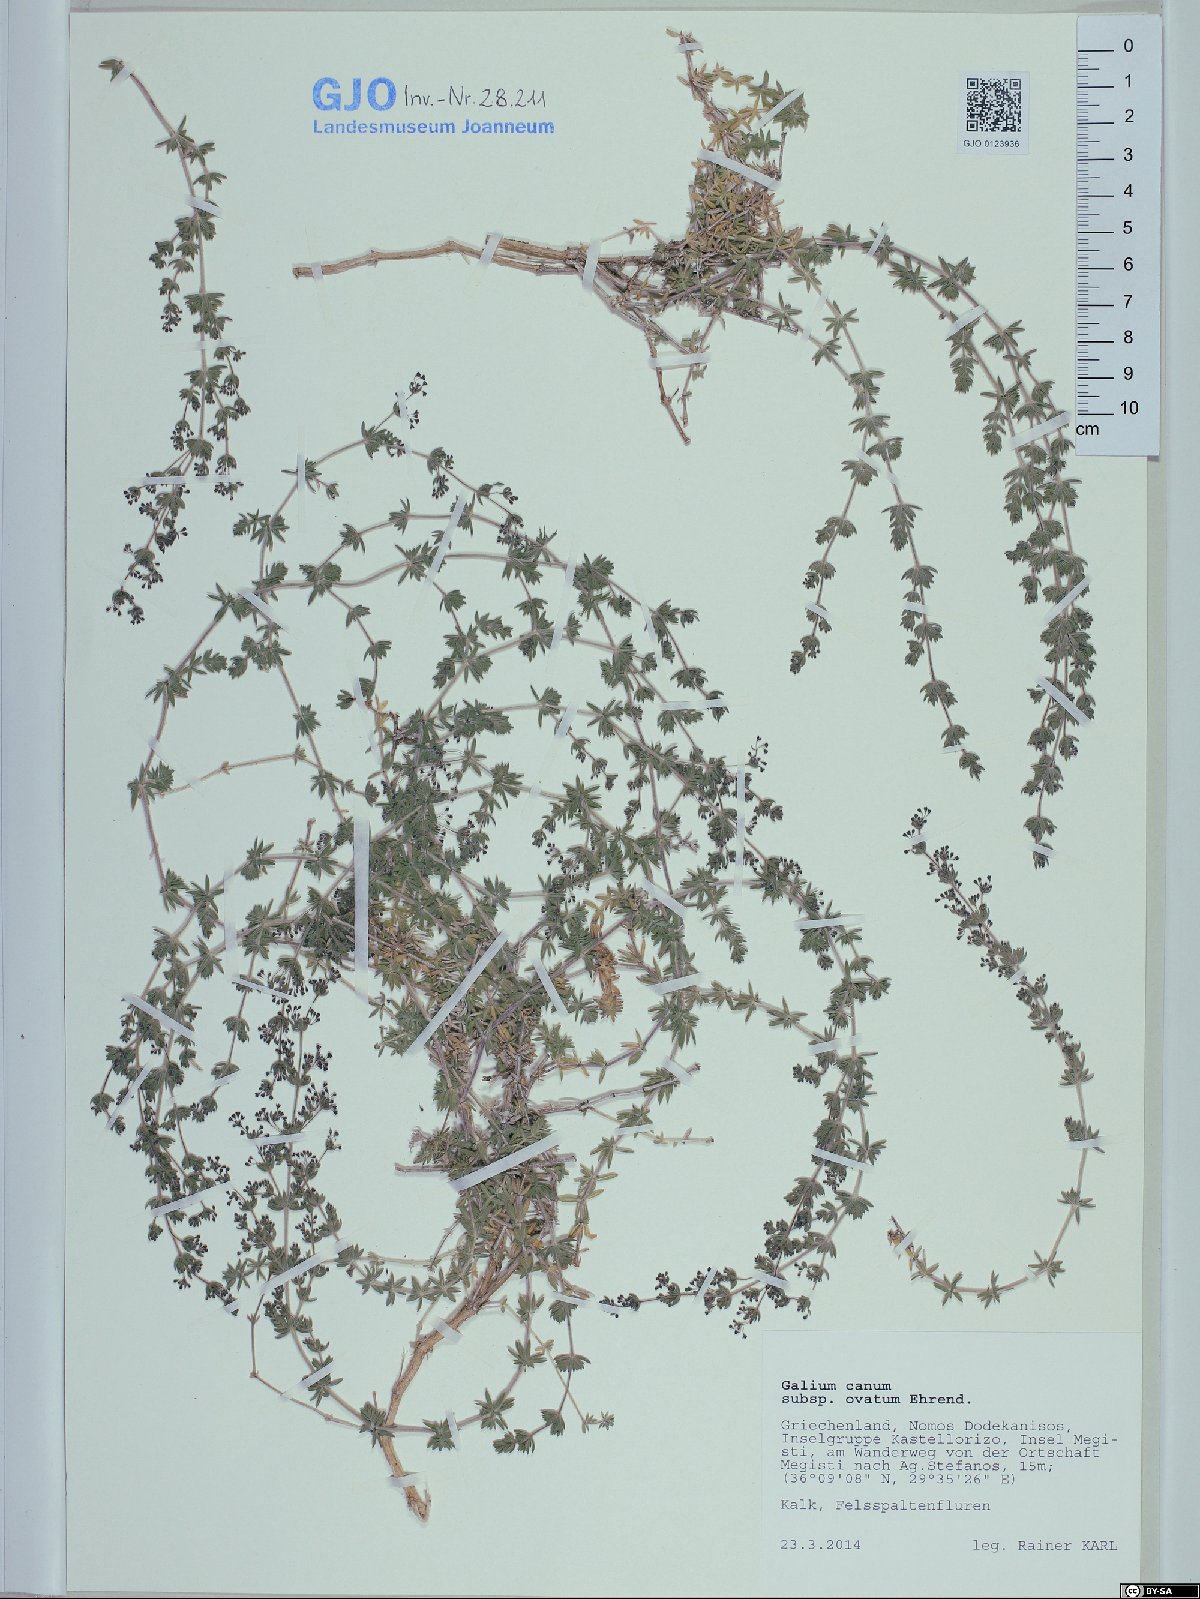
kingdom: Plantae
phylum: Tracheophyta
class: Magnoliopsida
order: Gentianales
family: Rubiaceae
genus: Galium
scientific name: Galium canum
